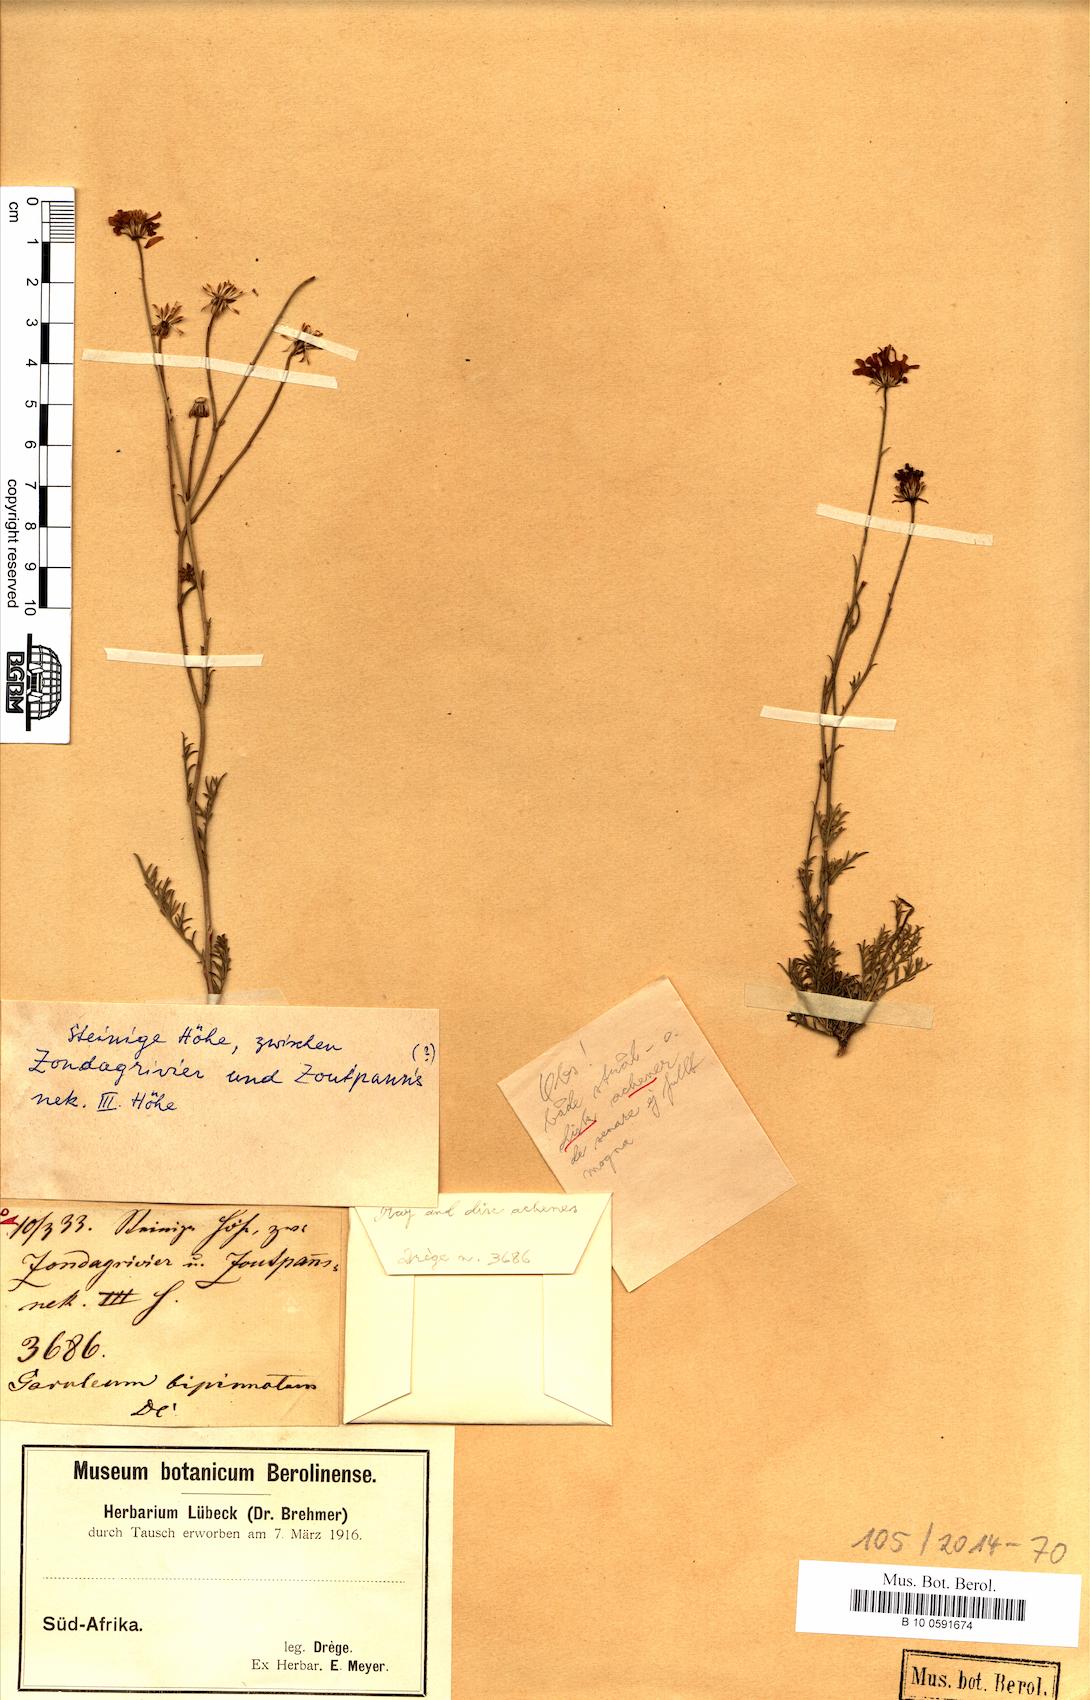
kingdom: Plantae
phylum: Tracheophyta
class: Magnoliopsida
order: Asterales
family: Asteraceae
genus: Garuleum
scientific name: Garuleum bipinnatum
